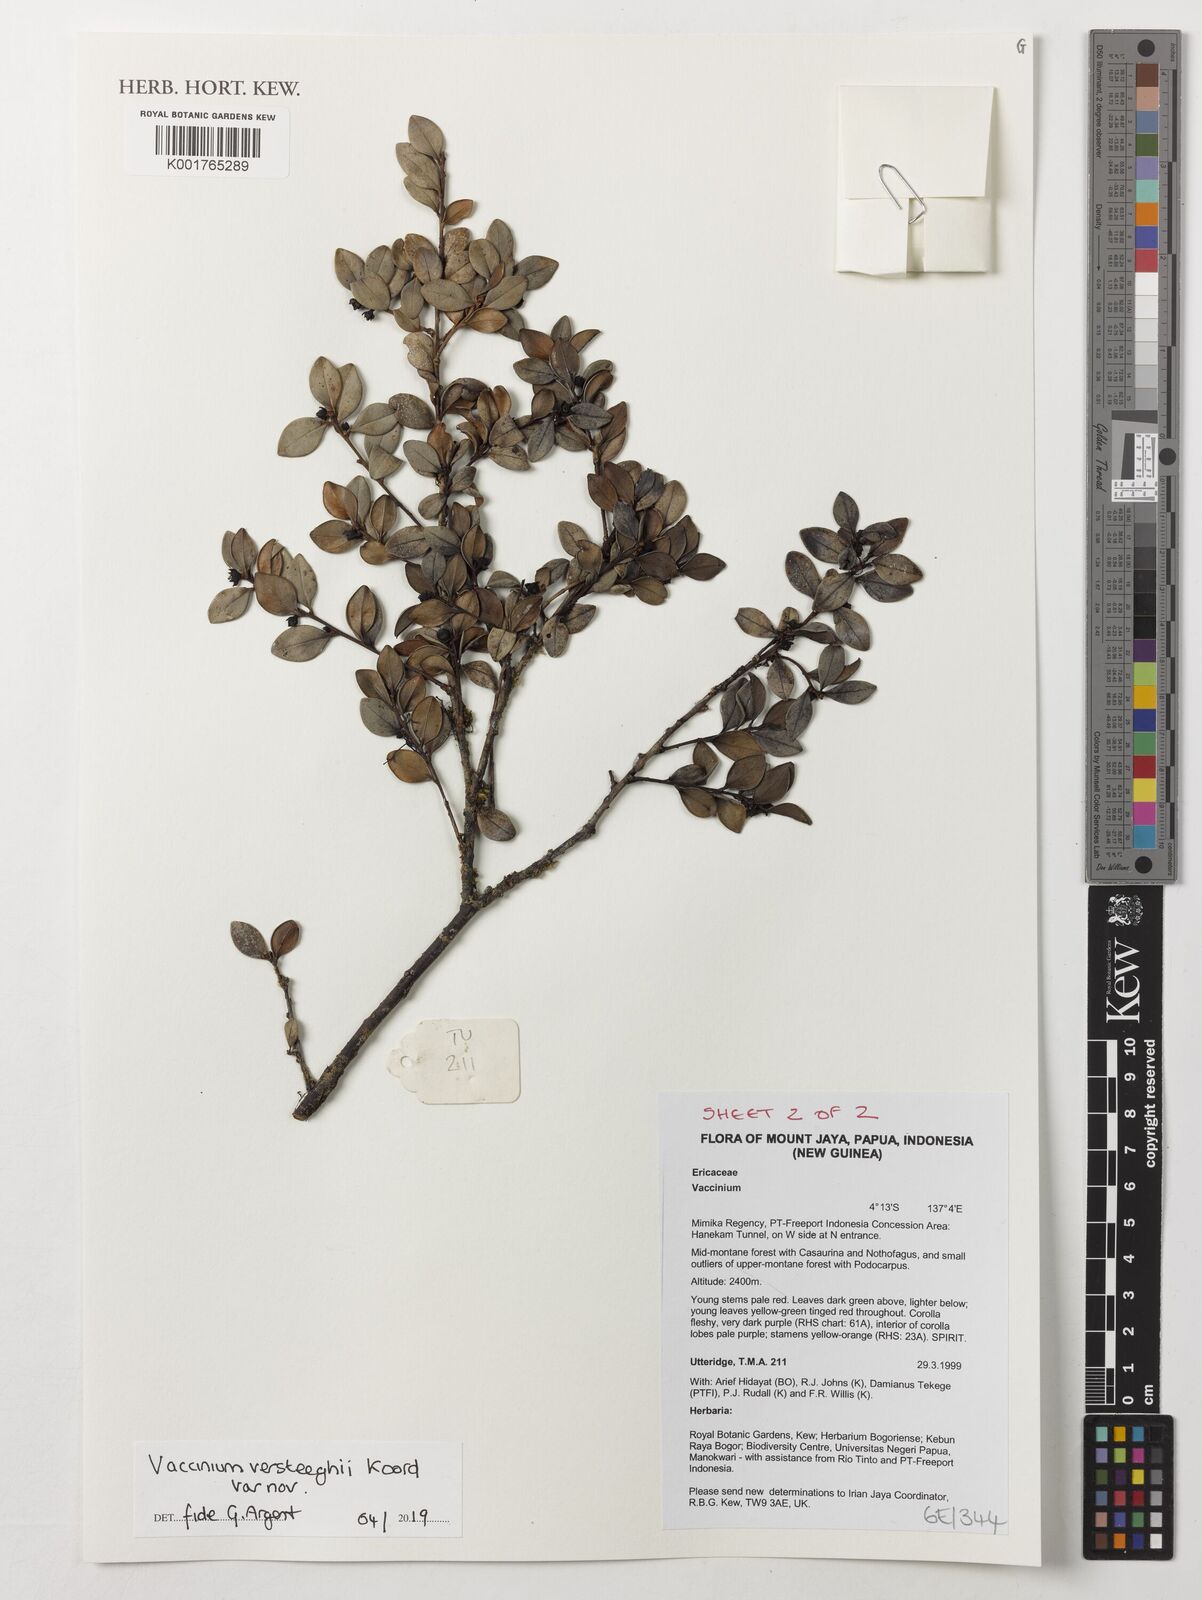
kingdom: Plantae
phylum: Tracheophyta
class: Magnoliopsida
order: Ericales
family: Ericaceae
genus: Vaccinium
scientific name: Vaccinium versteegii
